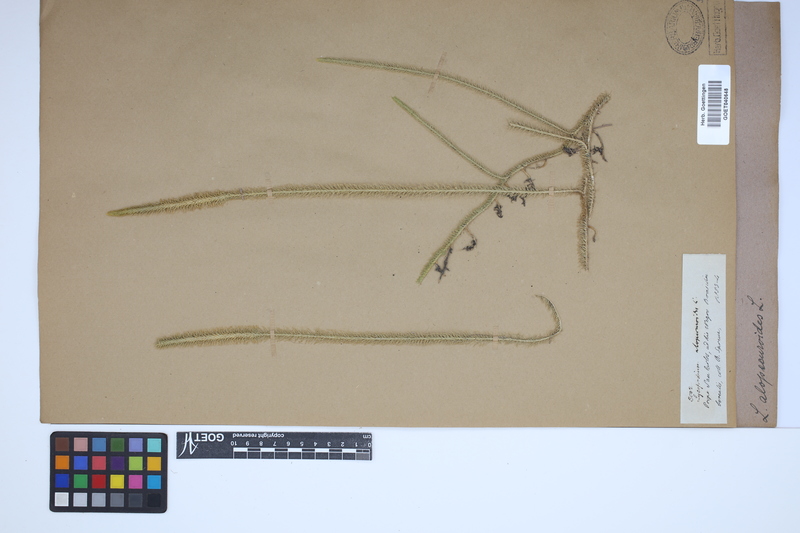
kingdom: Plantae
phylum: Tracheophyta
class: Lycopodiopsida
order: Lycopodiales
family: Lycopodiaceae
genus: Lycopodiella
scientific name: Lycopodiella alopecuroides
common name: Foxtail clubmoss
